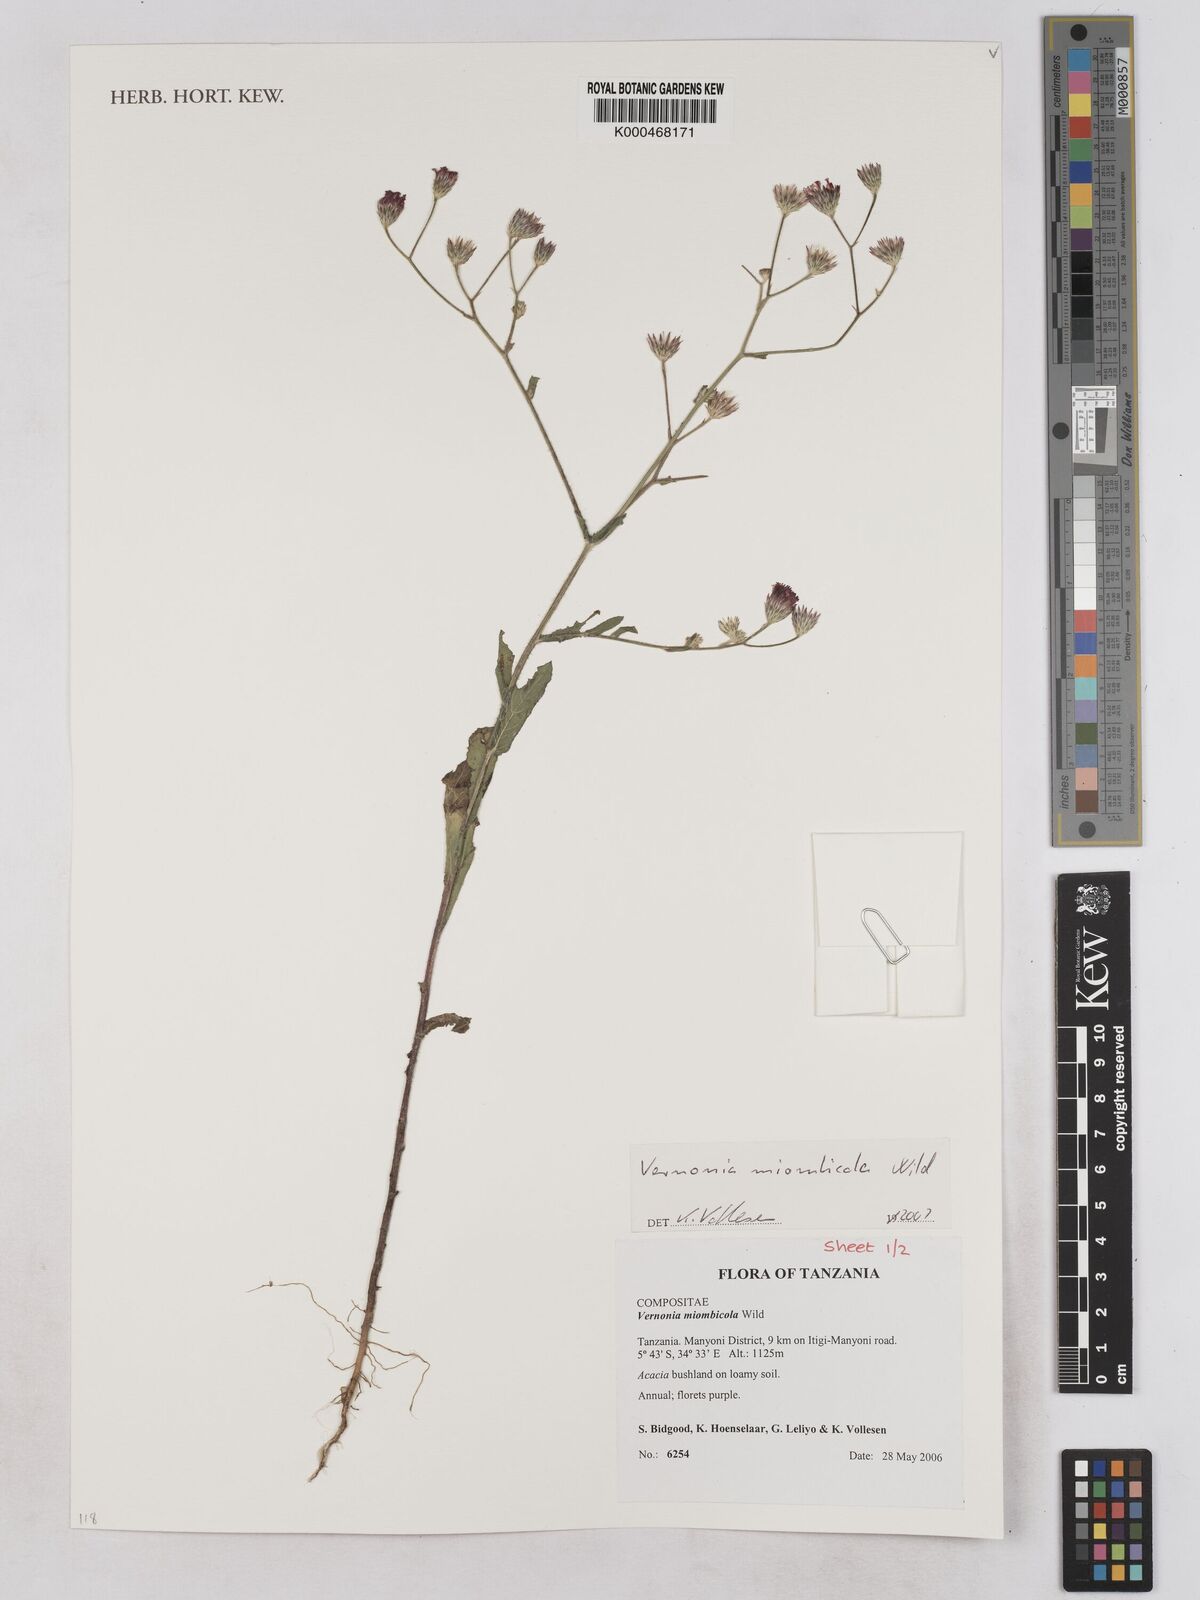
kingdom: Plantae
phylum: Tracheophyta
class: Magnoliopsida
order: Asterales
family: Asteraceae
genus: Vernonia
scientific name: Vernonia miombicola
